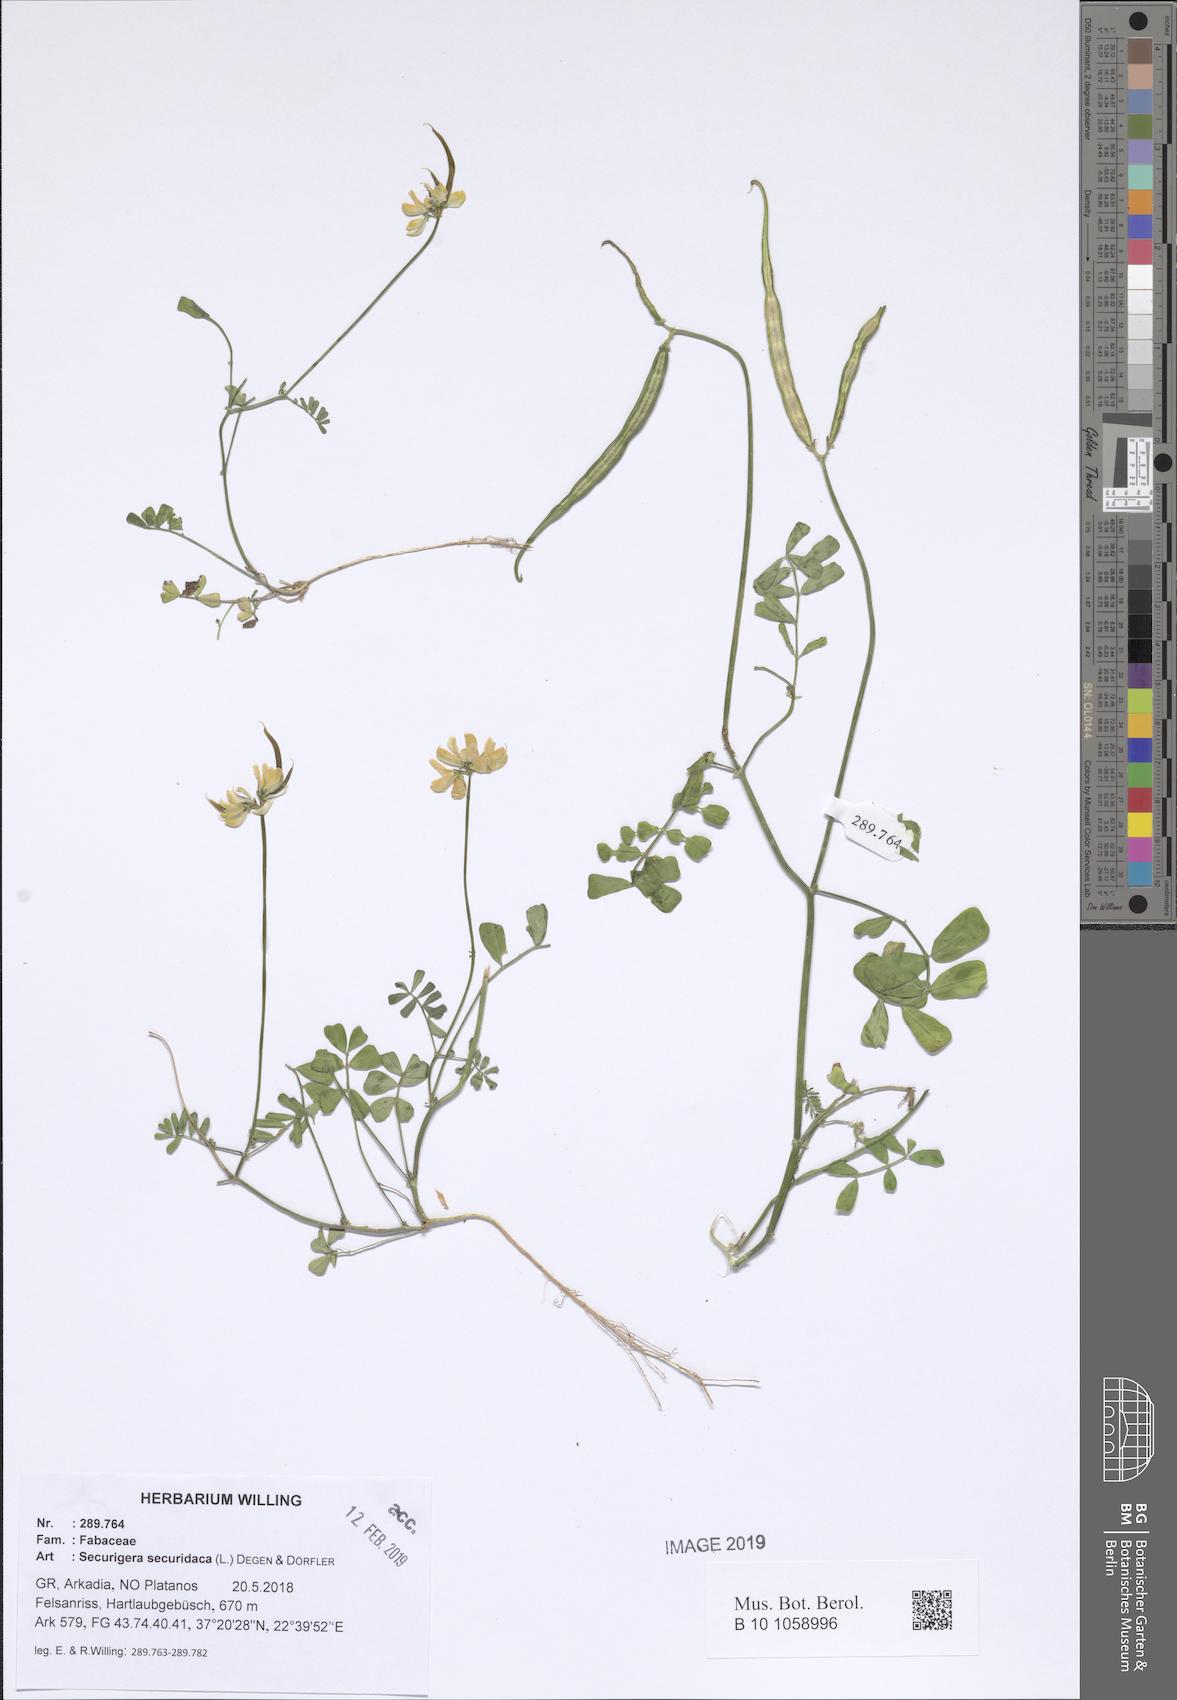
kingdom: Plantae
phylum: Tracheophyta
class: Magnoliopsida
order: Fabales
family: Fabaceae
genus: Coronilla
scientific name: Coronilla securidaca
